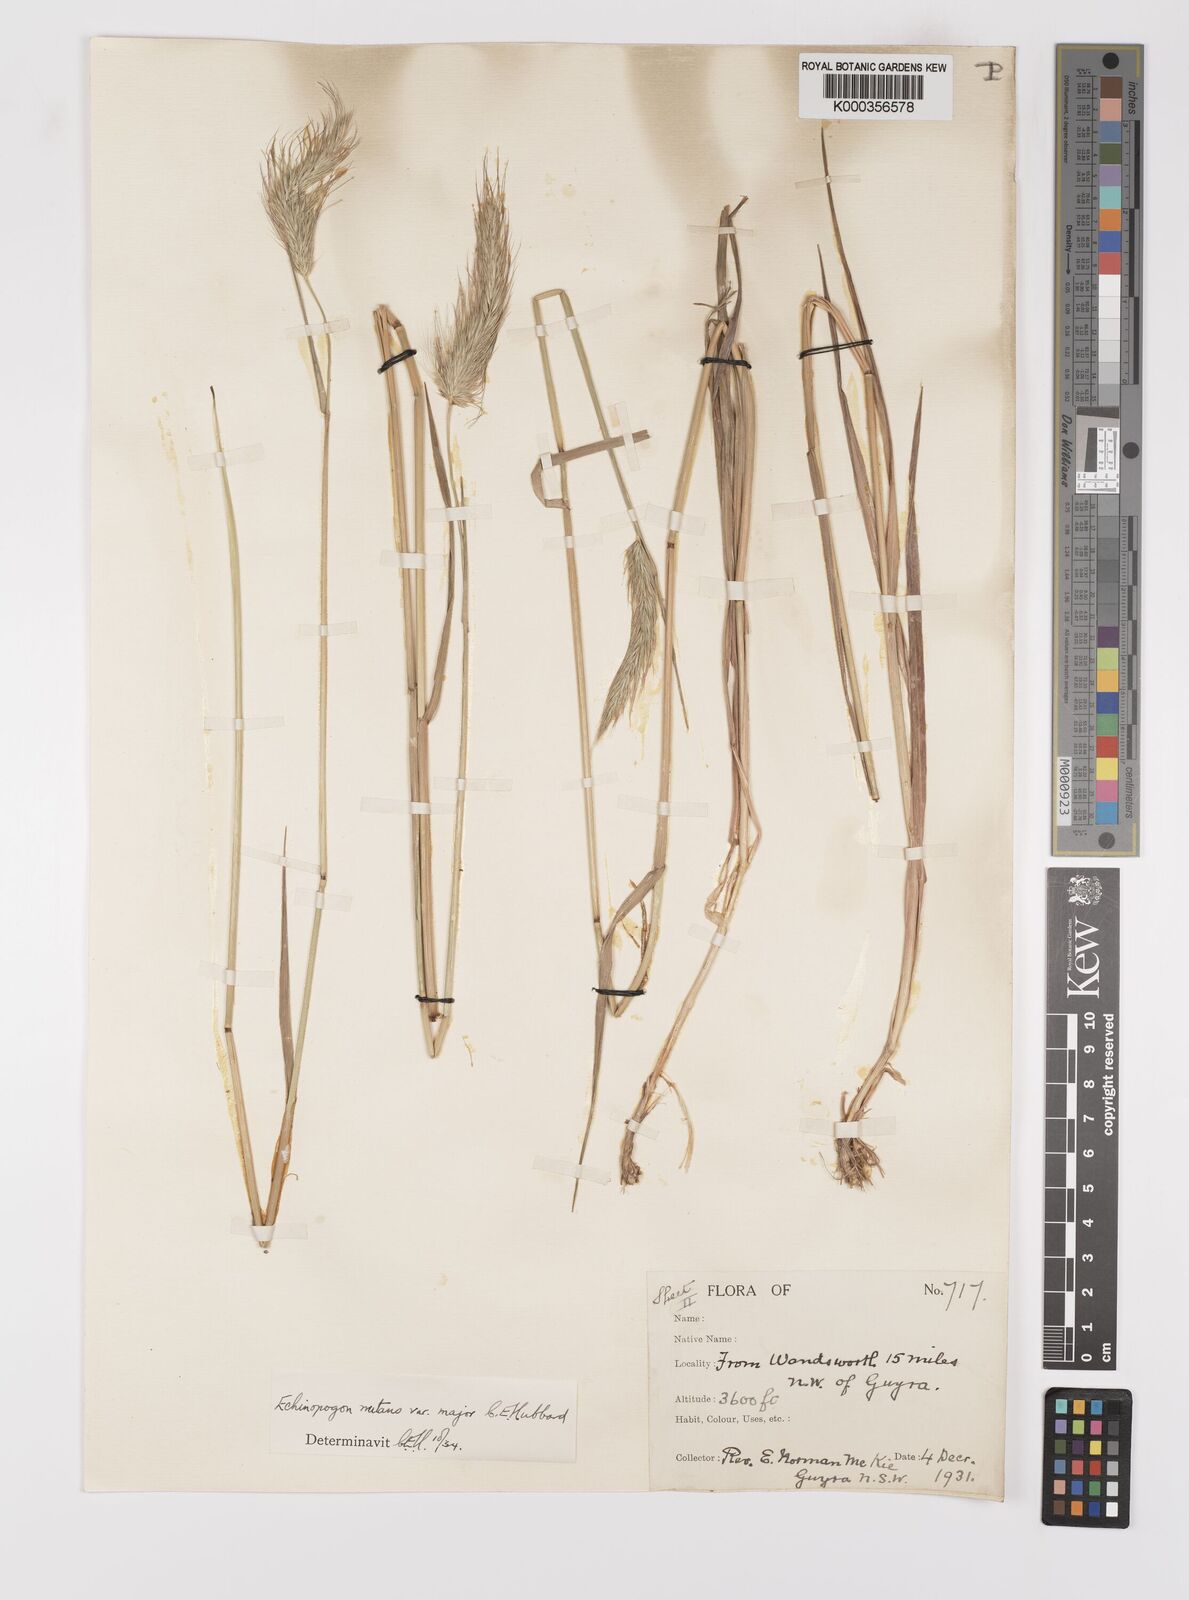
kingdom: Plantae
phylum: Tracheophyta
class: Liliopsida
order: Poales
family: Poaceae
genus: Echinopogon
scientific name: Echinopogon nutans
